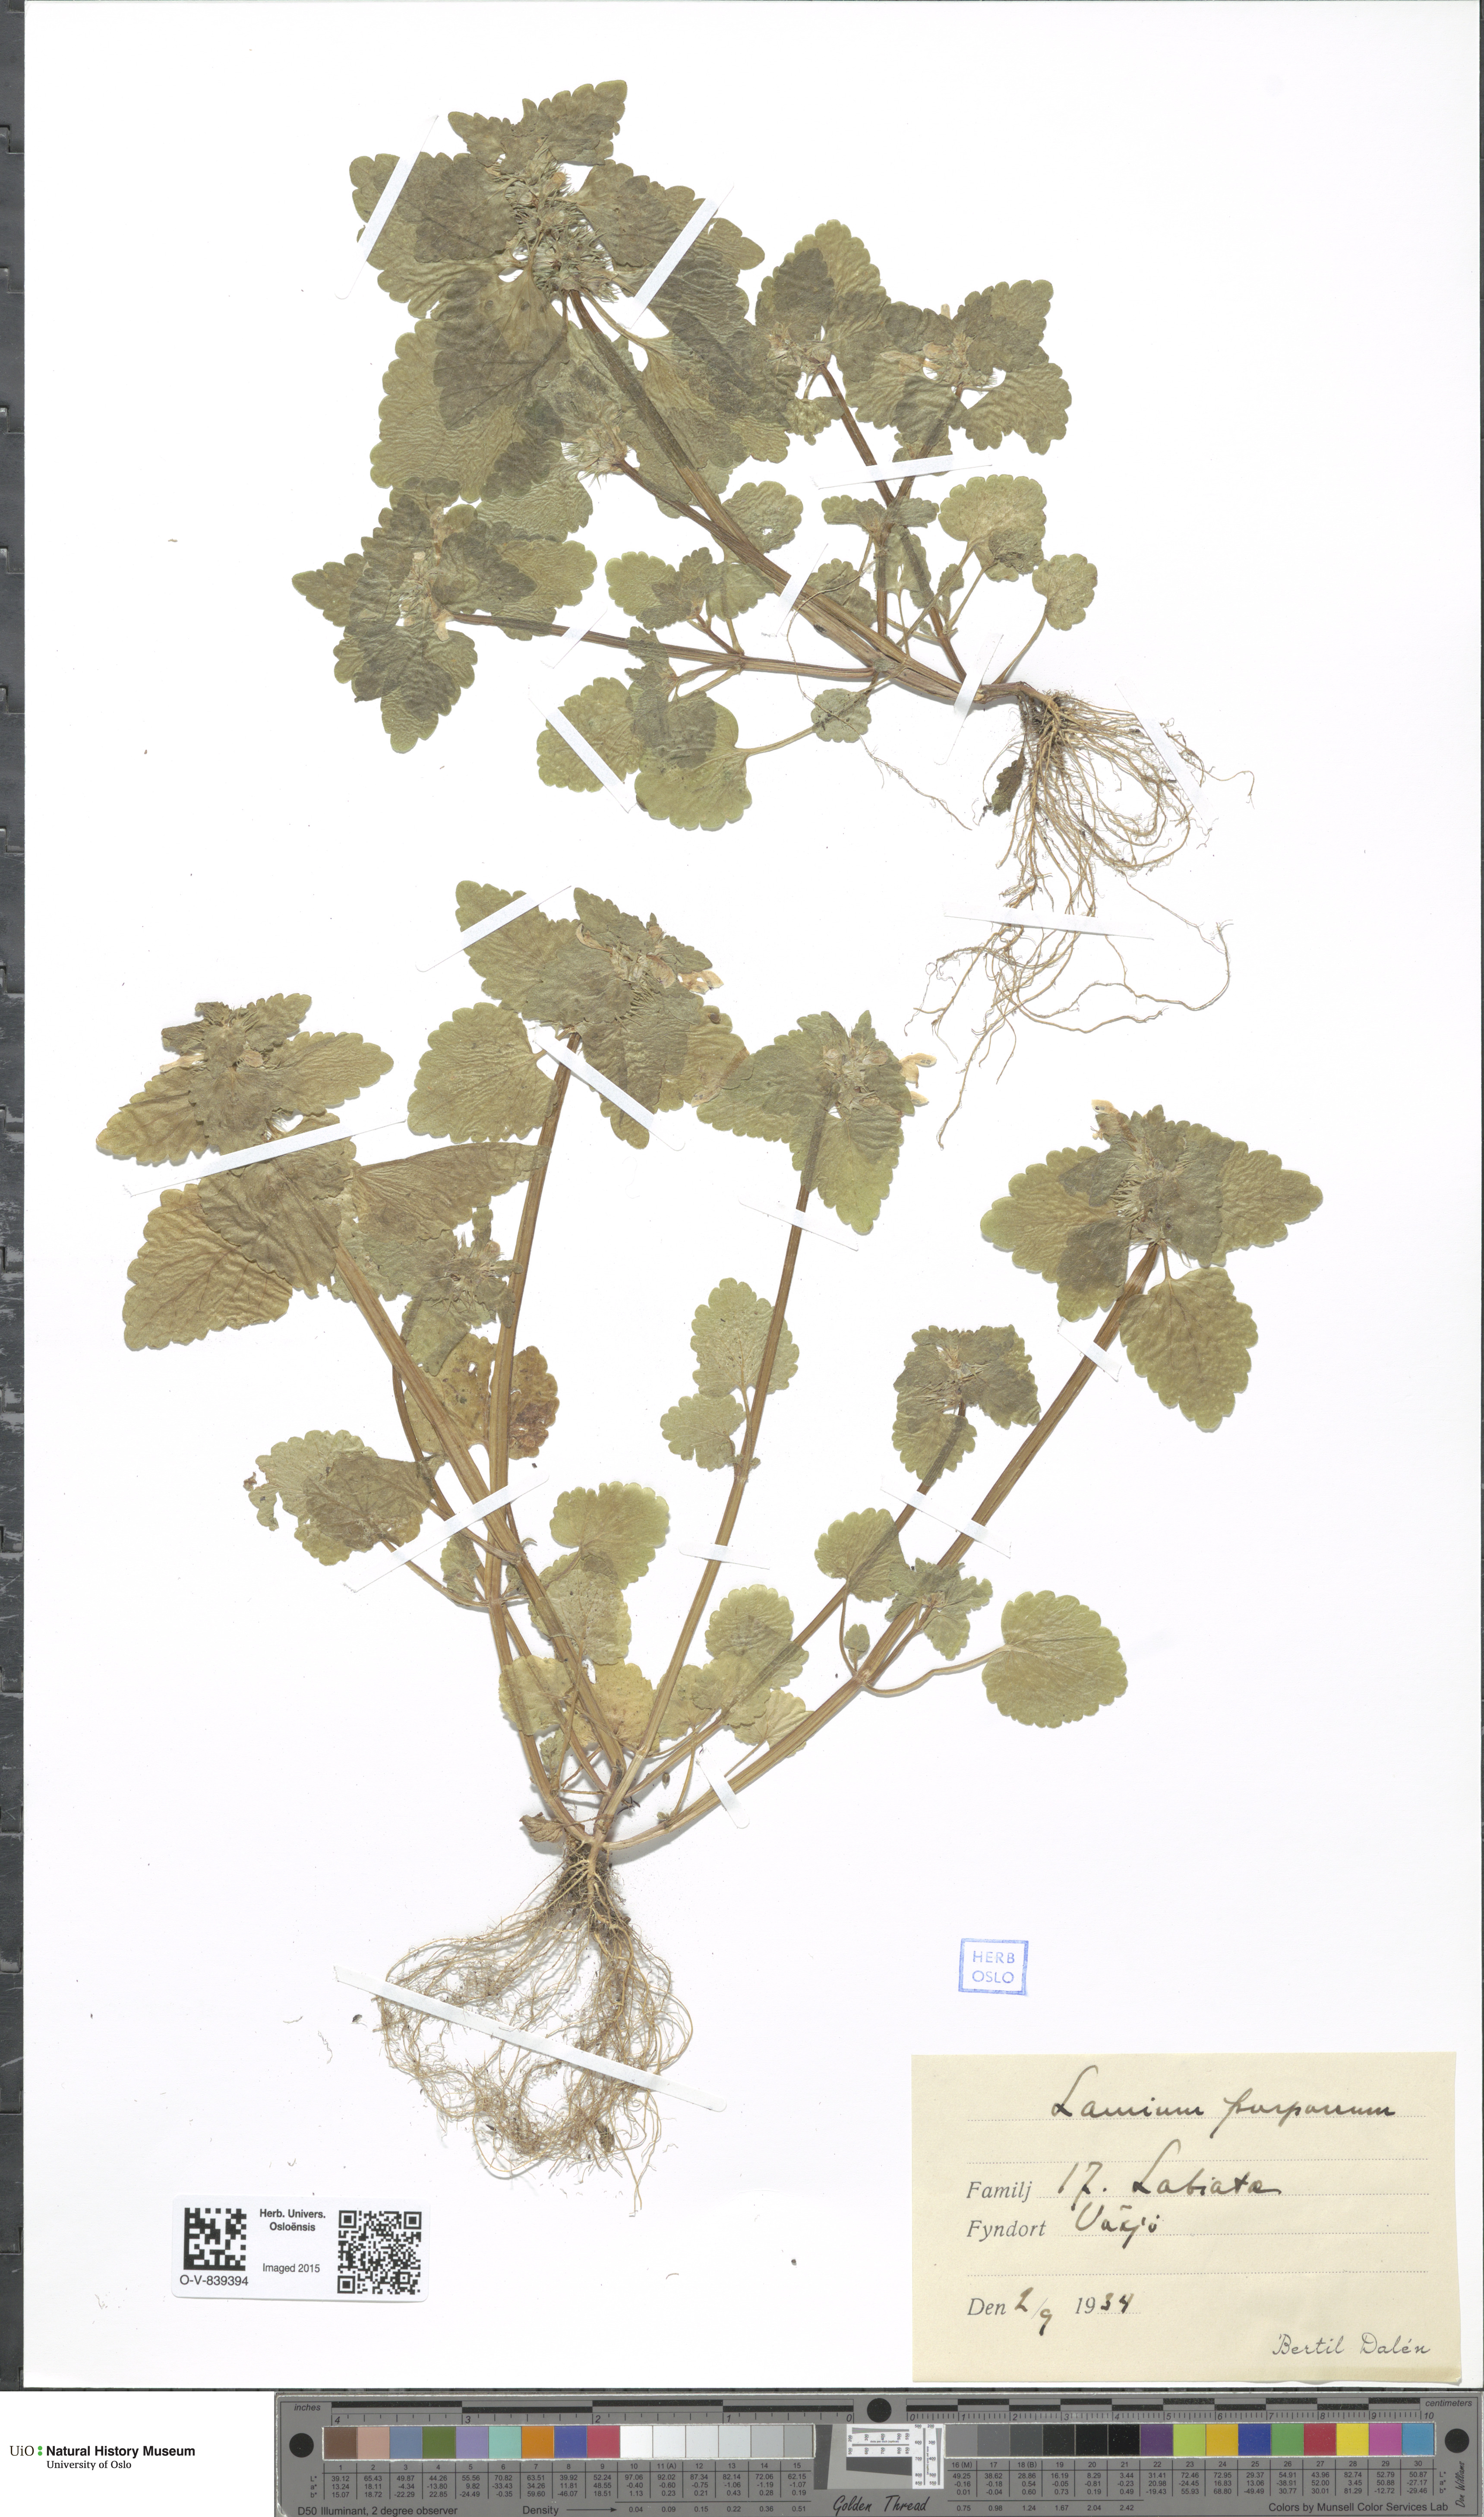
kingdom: Plantae
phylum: Tracheophyta
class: Magnoliopsida
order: Lamiales
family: Lamiaceae
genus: Lamium
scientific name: Lamium purpureum
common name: Red dead-nettle
